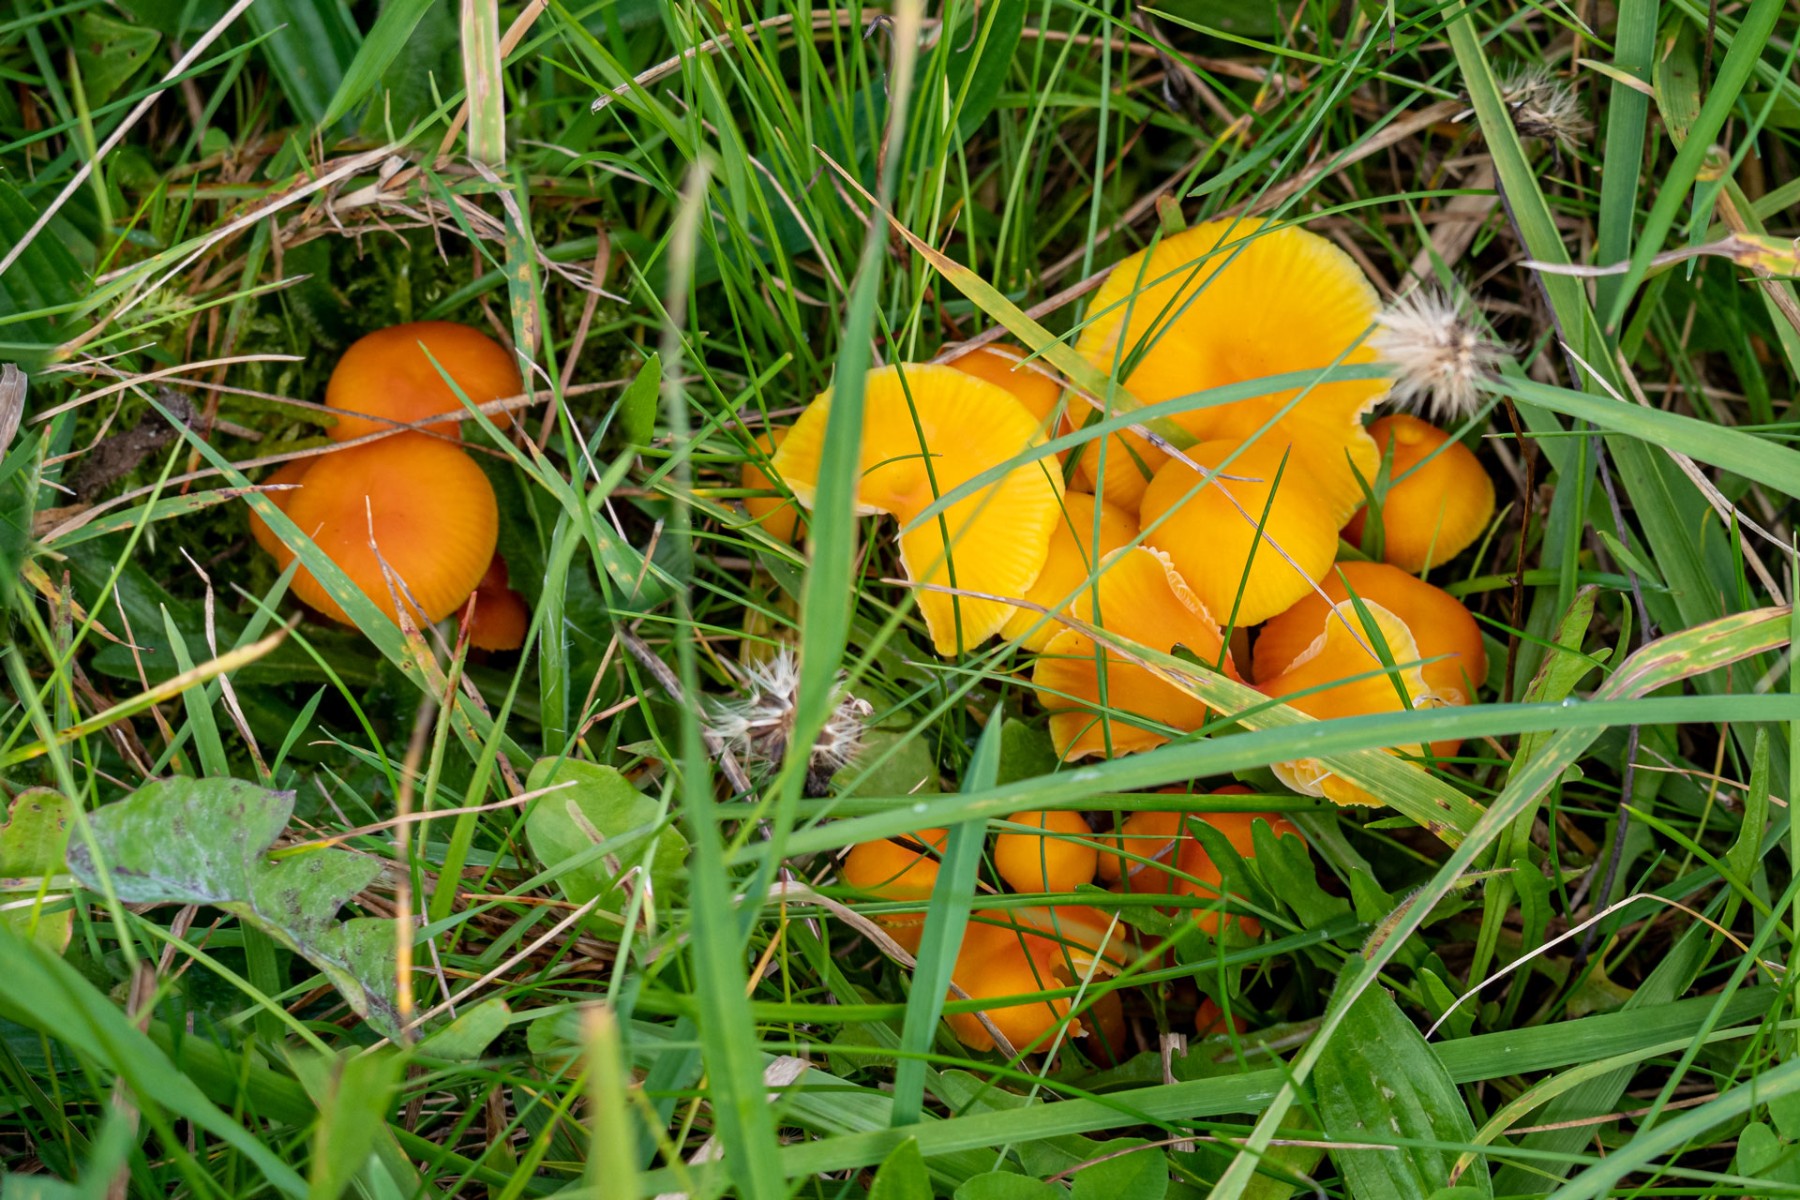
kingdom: Fungi
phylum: Basidiomycota
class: Agaricomycetes
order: Agaricales
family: Hygrophoraceae
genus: Hygrocybe
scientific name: Hygrocybe ceracea
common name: voksgul vokshat
